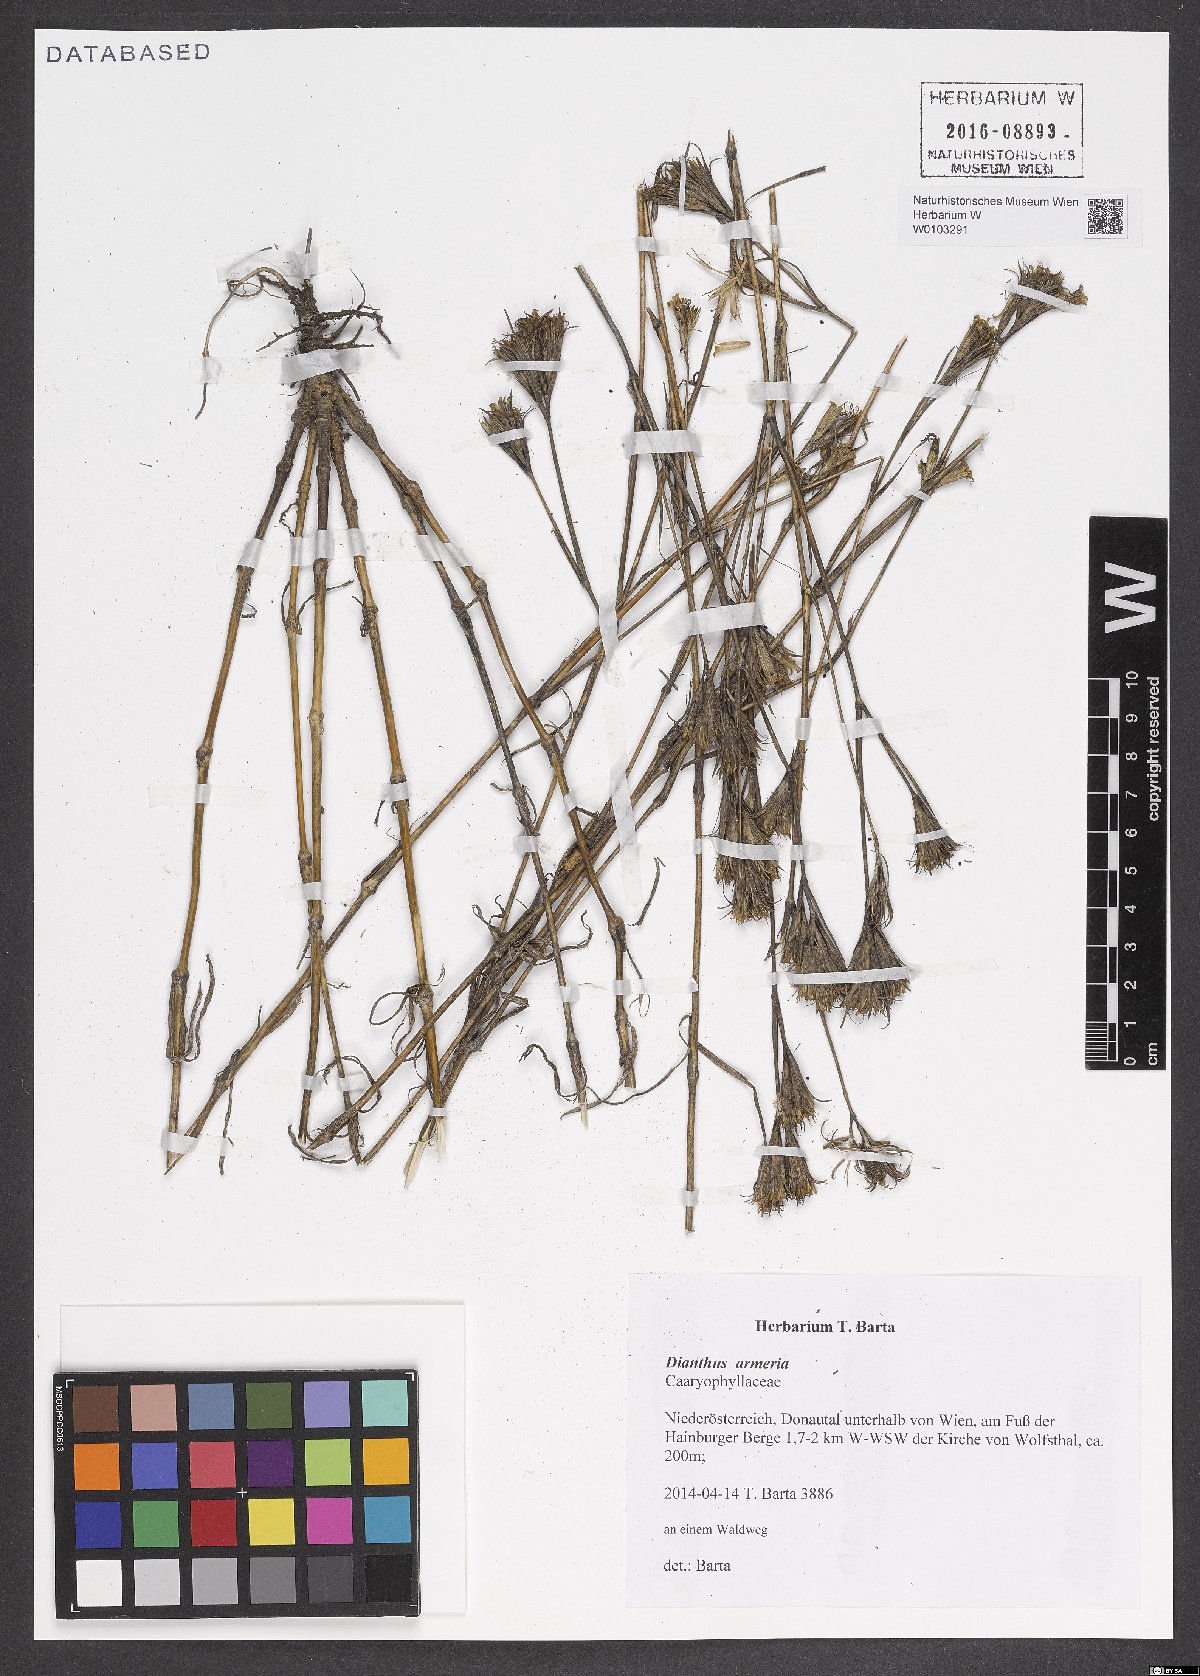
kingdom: Plantae
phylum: Tracheophyta
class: Magnoliopsida
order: Caryophyllales
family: Caryophyllaceae
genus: Dianthus
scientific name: Dianthus armeria
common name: Deptford pink
